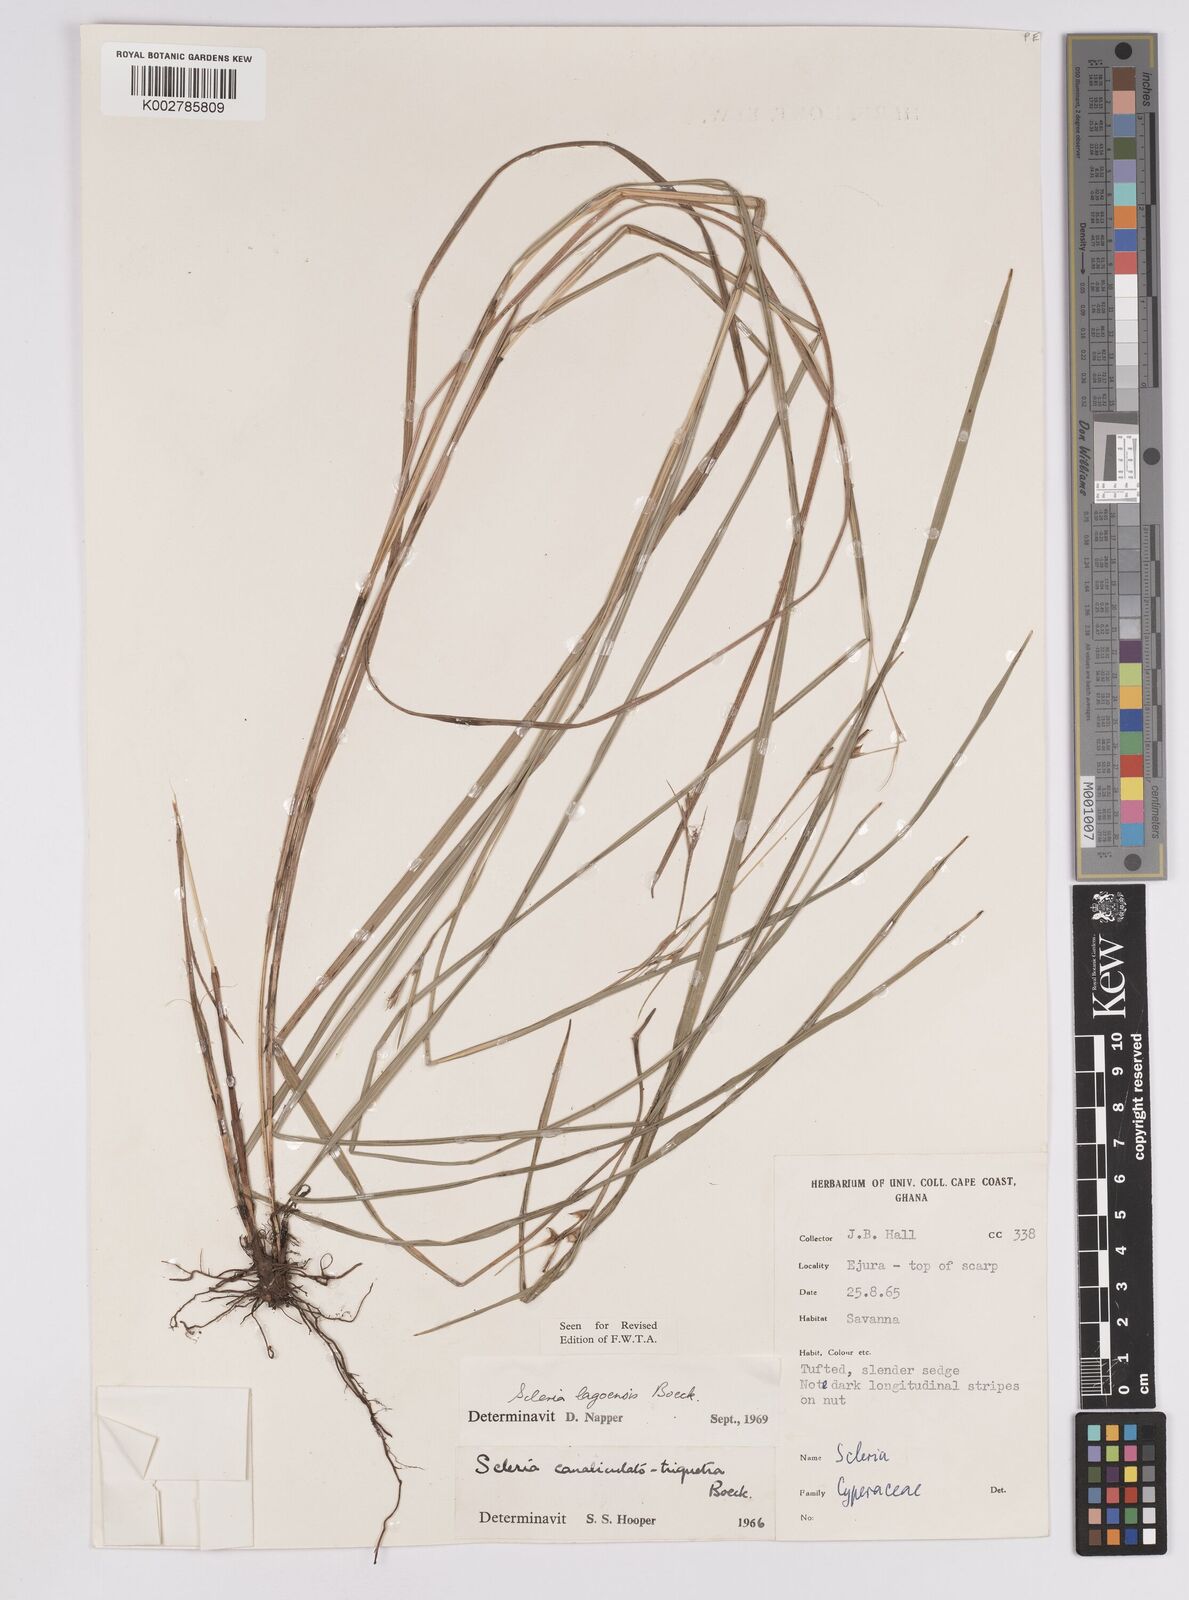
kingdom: Plantae
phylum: Tracheophyta
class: Liliopsida
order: Poales
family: Cyperaceae
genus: Scleria
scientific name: Scleria lagoensis
